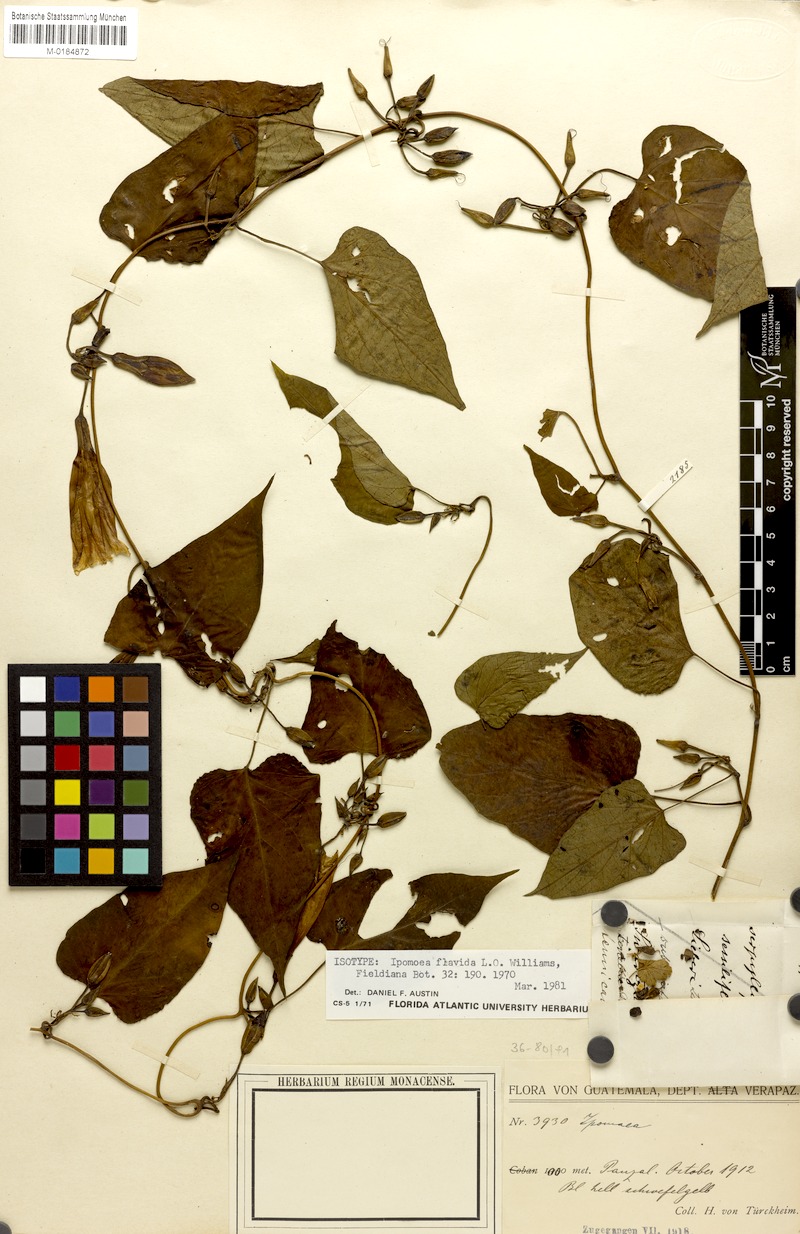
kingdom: Plantae
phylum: Tracheophyta
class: Magnoliopsida
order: Solanales
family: Convolvulaceae
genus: Ipomoea
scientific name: Ipomoea lindenii
